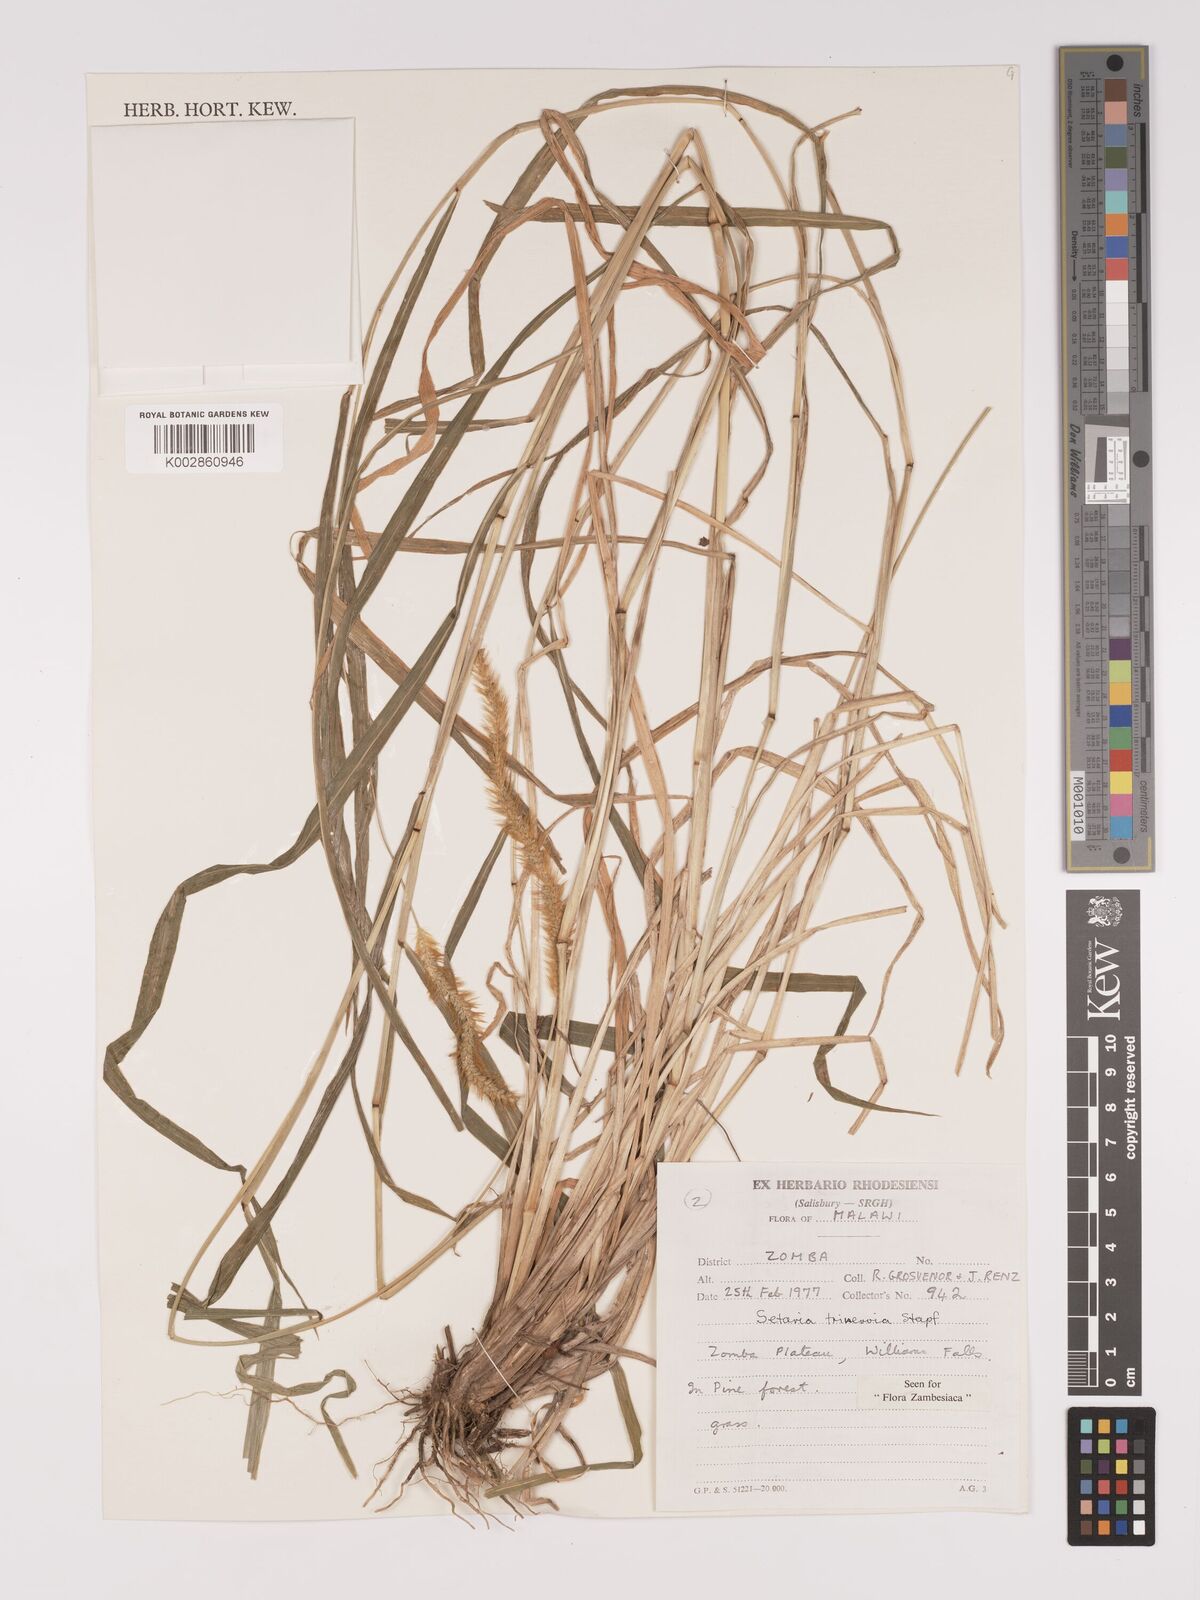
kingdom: Plantae
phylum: Tracheophyta
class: Liliopsida
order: Poales
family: Poaceae
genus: Setaria
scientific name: Setaria sphacelata
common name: African bristlegrass
